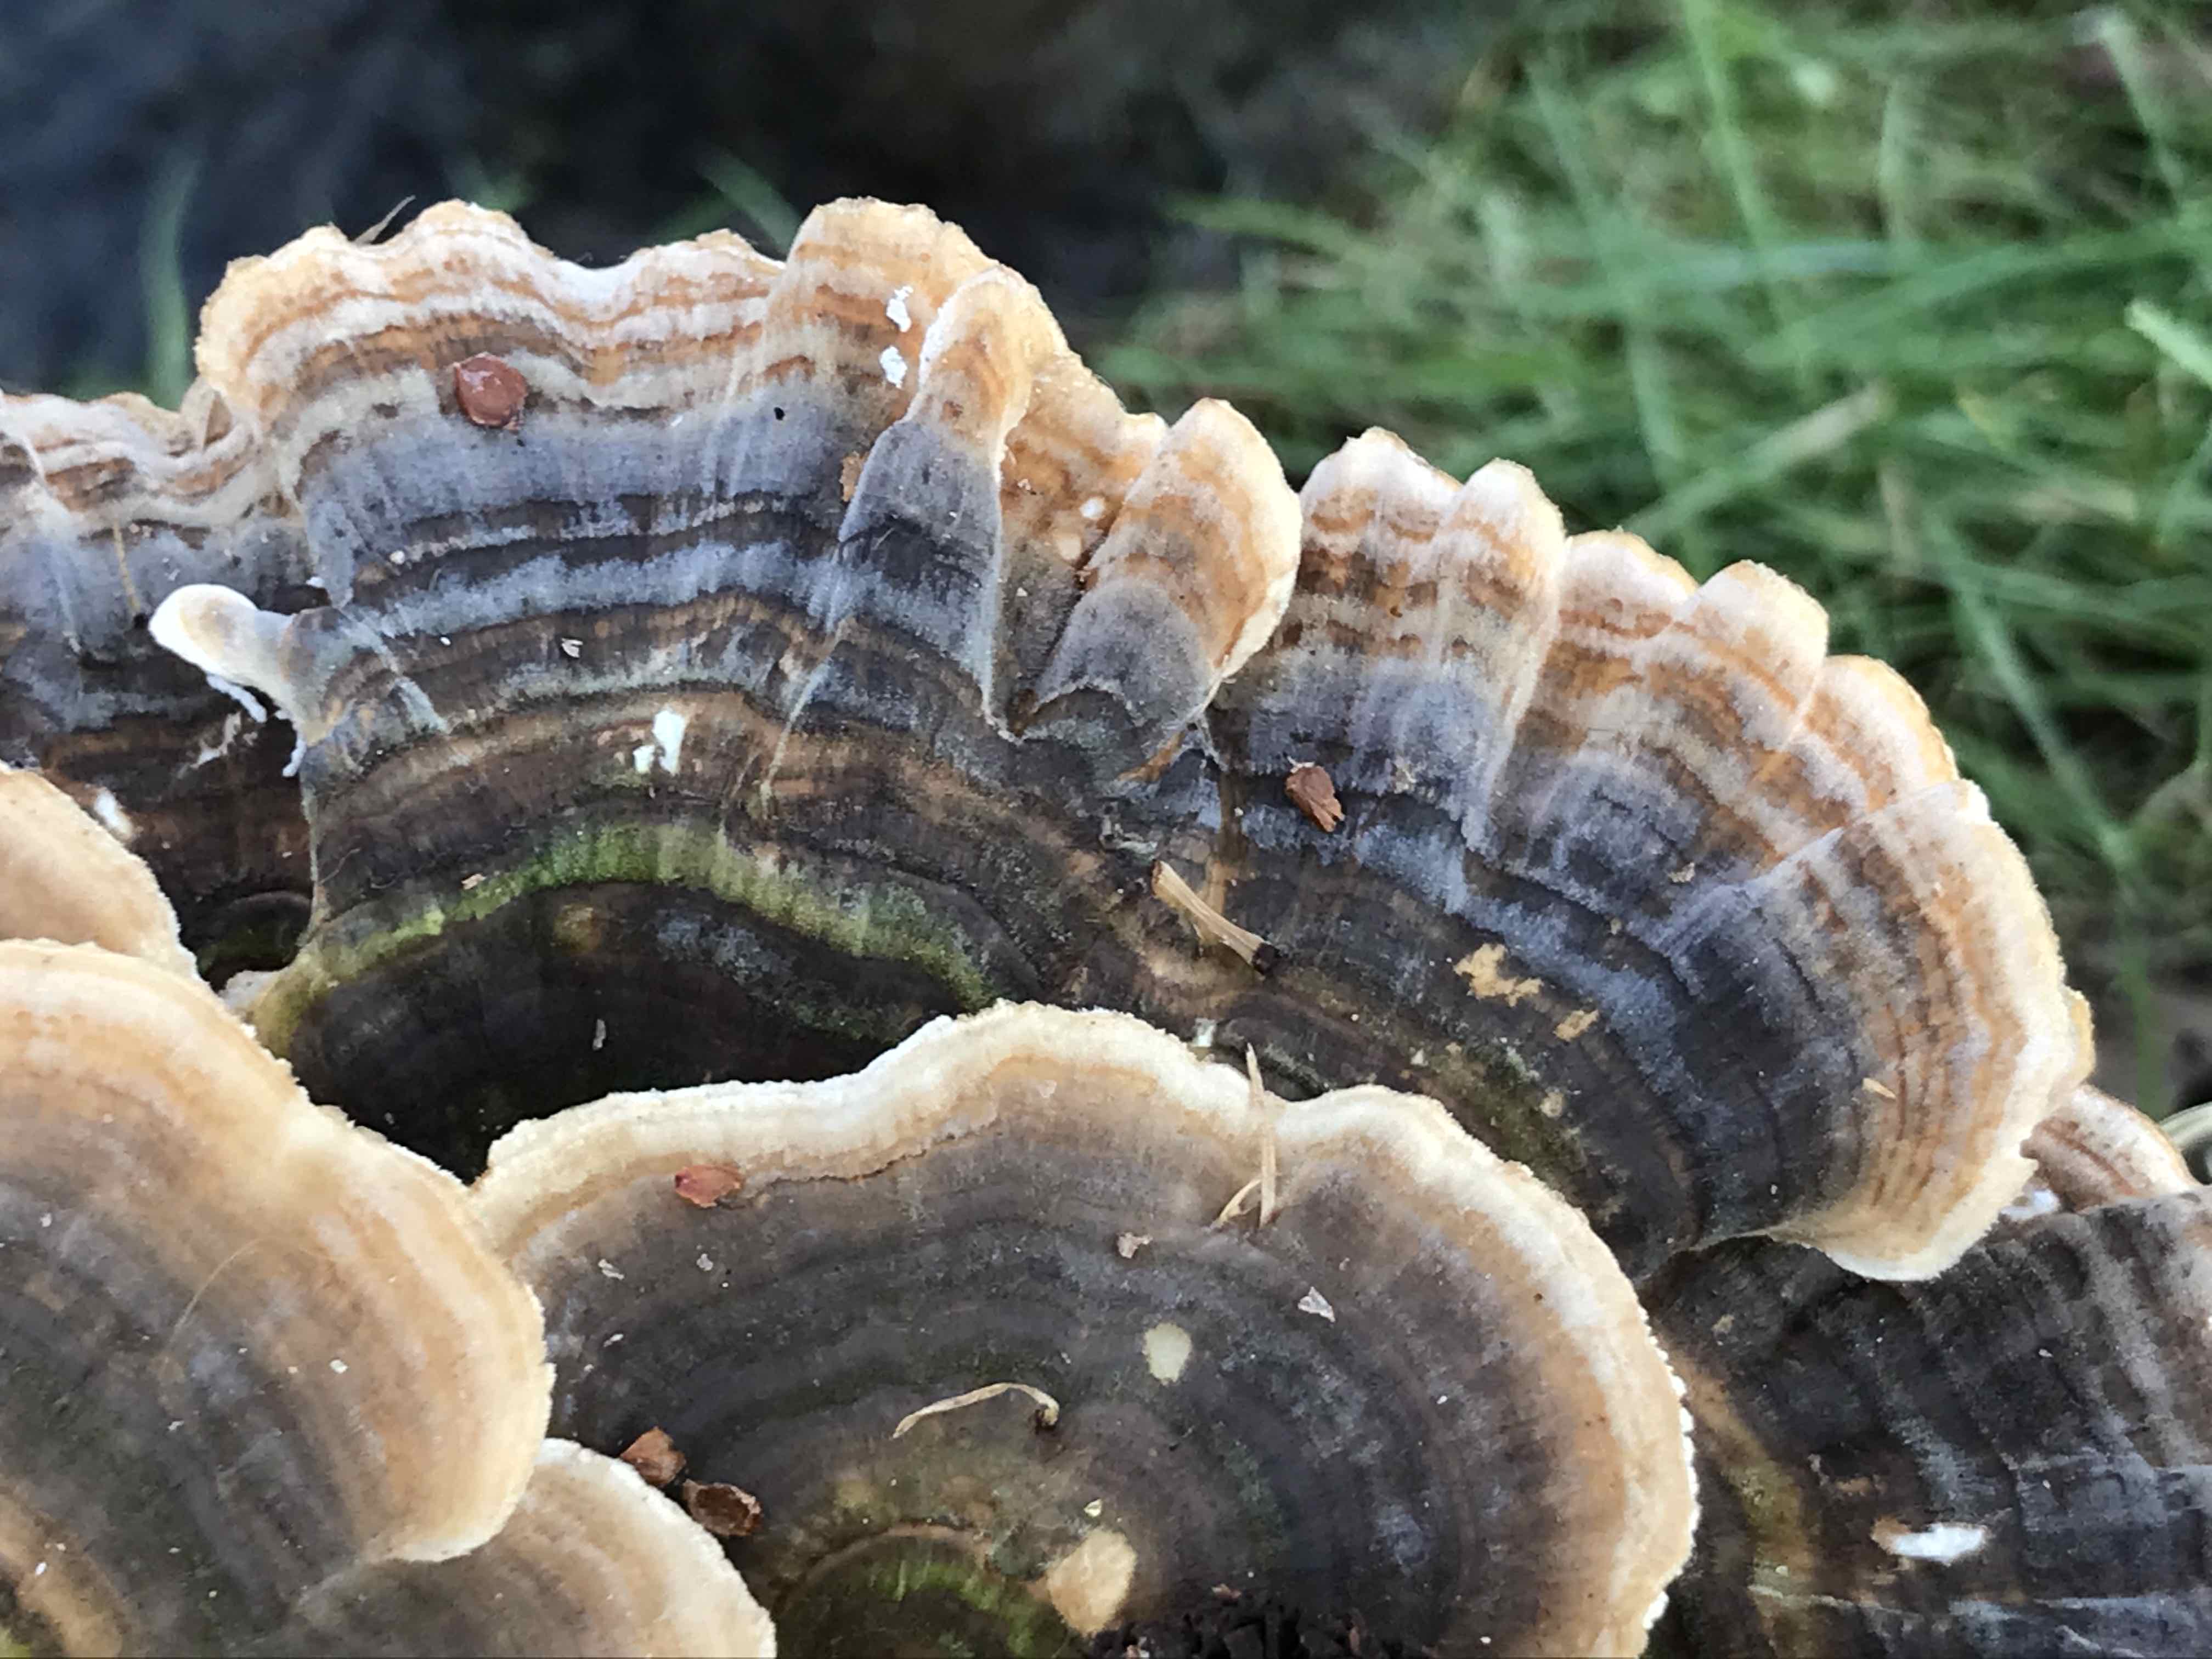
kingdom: Fungi
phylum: Basidiomycota
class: Agaricomycetes
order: Polyporales
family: Polyporaceae
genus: Trametes
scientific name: Trametes versicolor
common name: broget læderporesvamp
